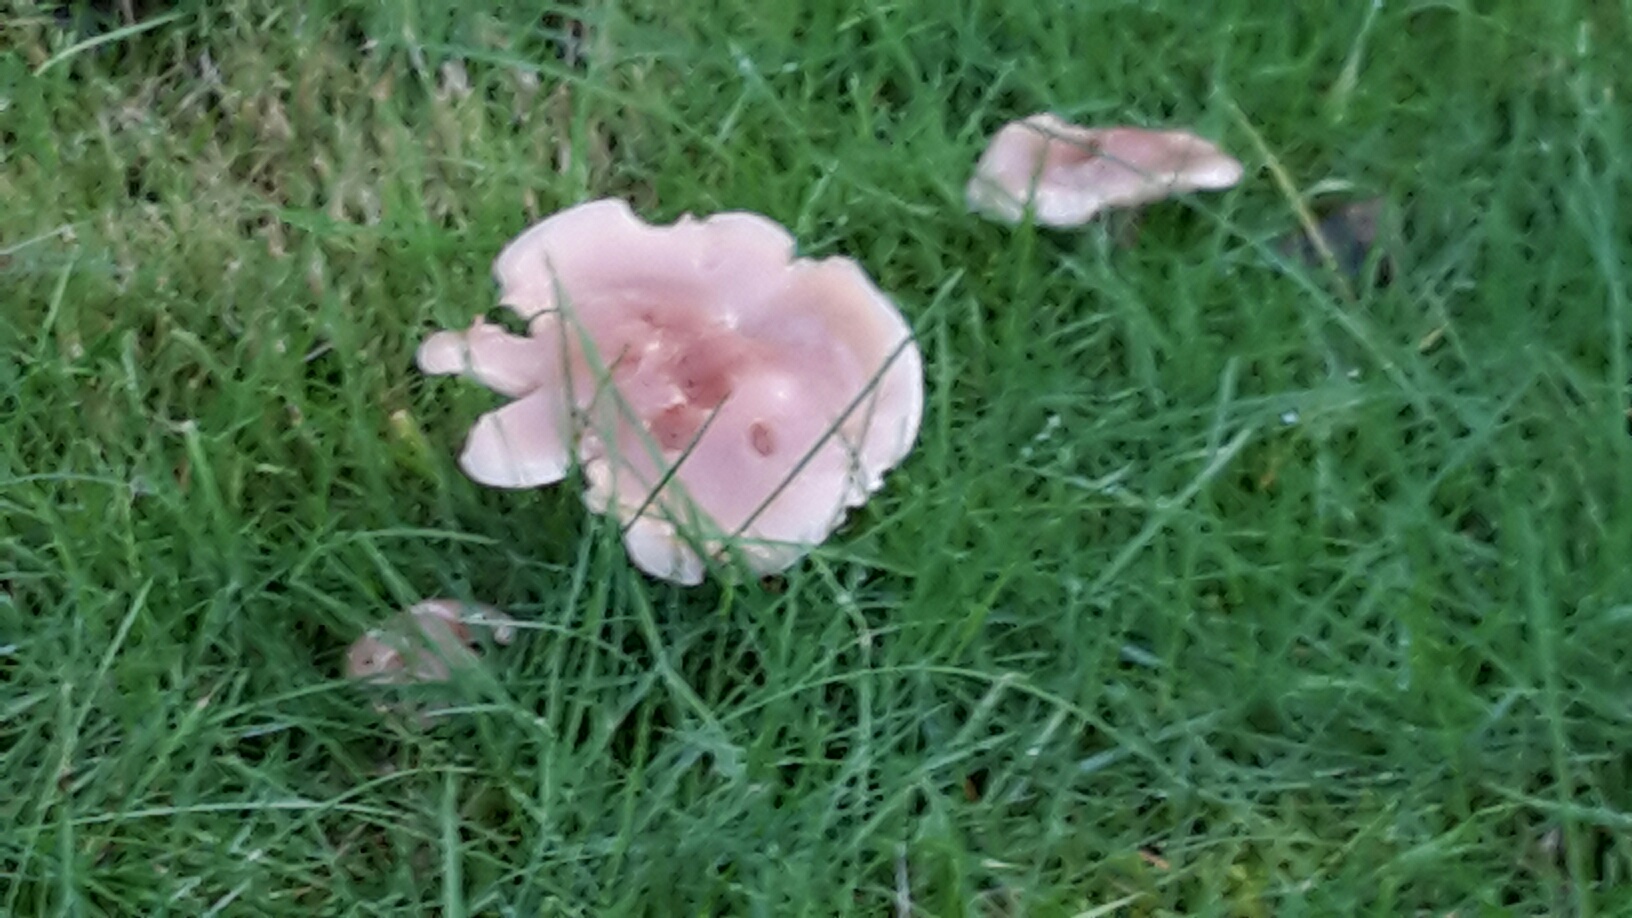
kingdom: Fungi
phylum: Basidiomycota
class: Agaricomycetes
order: Agaricales
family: Tricholomataceae
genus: Lepista
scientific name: Lepista irina
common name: violduftende hekseringshat
